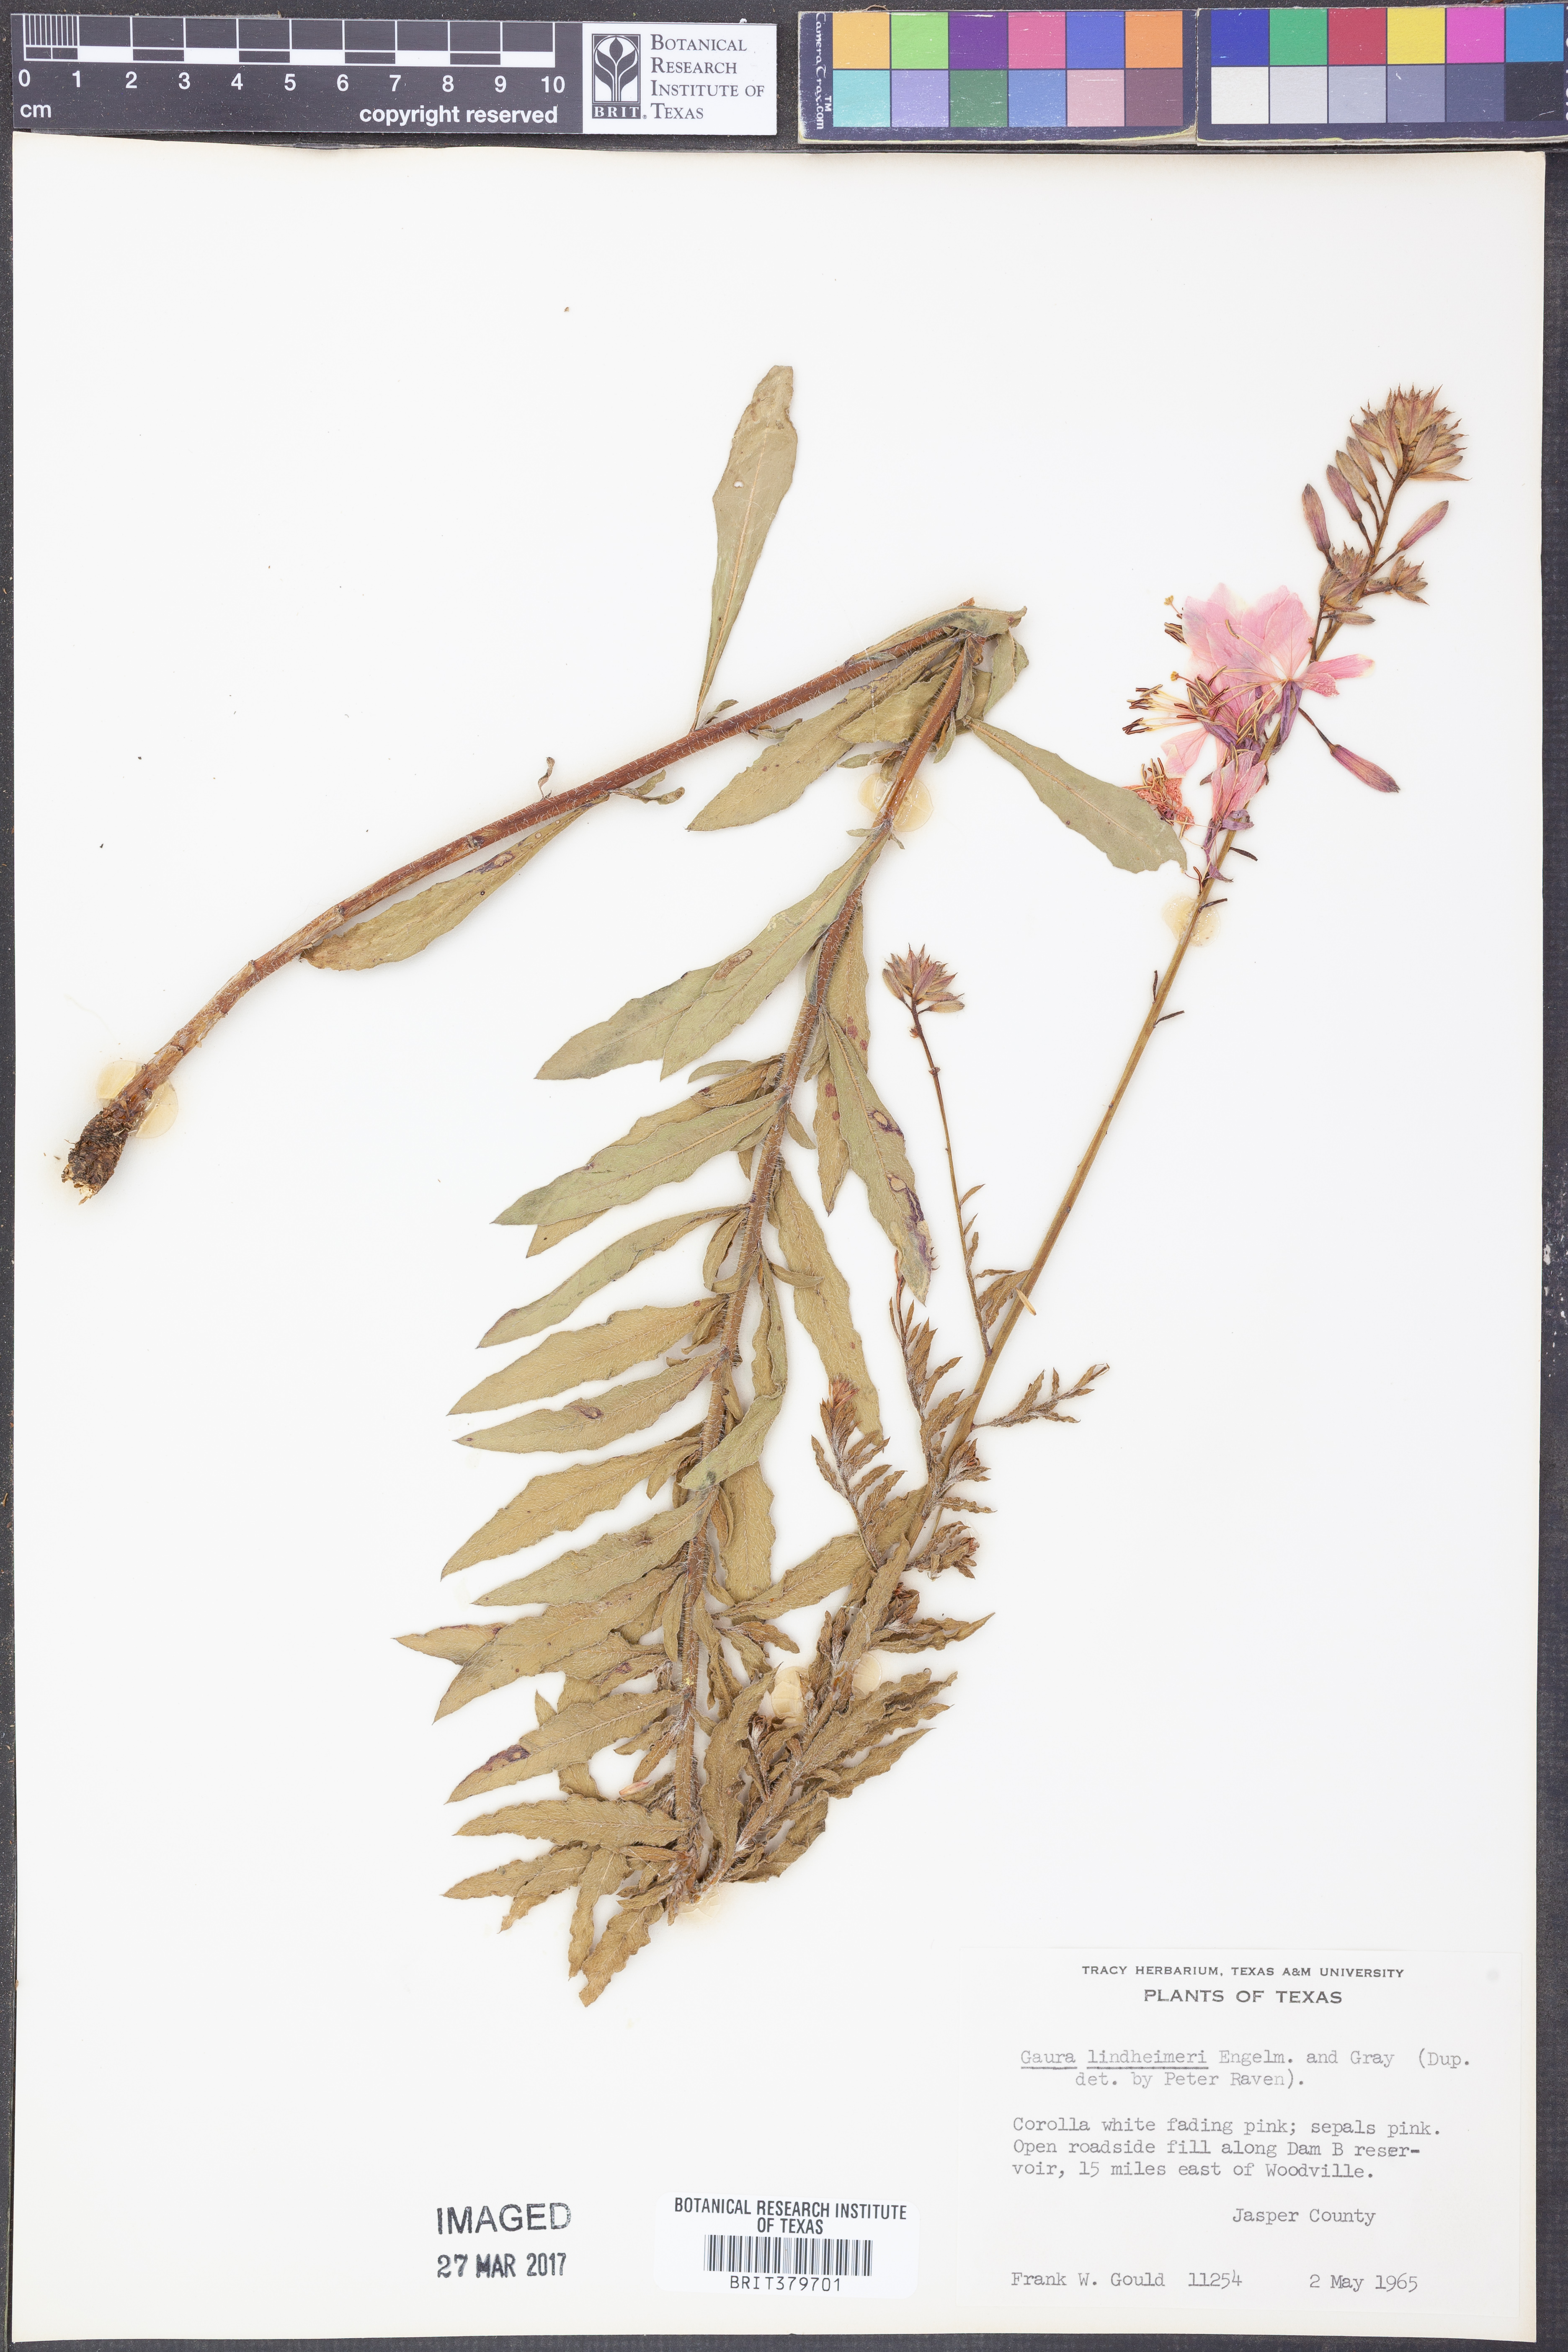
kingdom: Plantae
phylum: Tracheophyta
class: Magnoliopsida
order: Myrtales
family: Onagraceae
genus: Oenothera
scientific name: Oenothera lindheimeri
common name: Lindheimer's beeblossom
